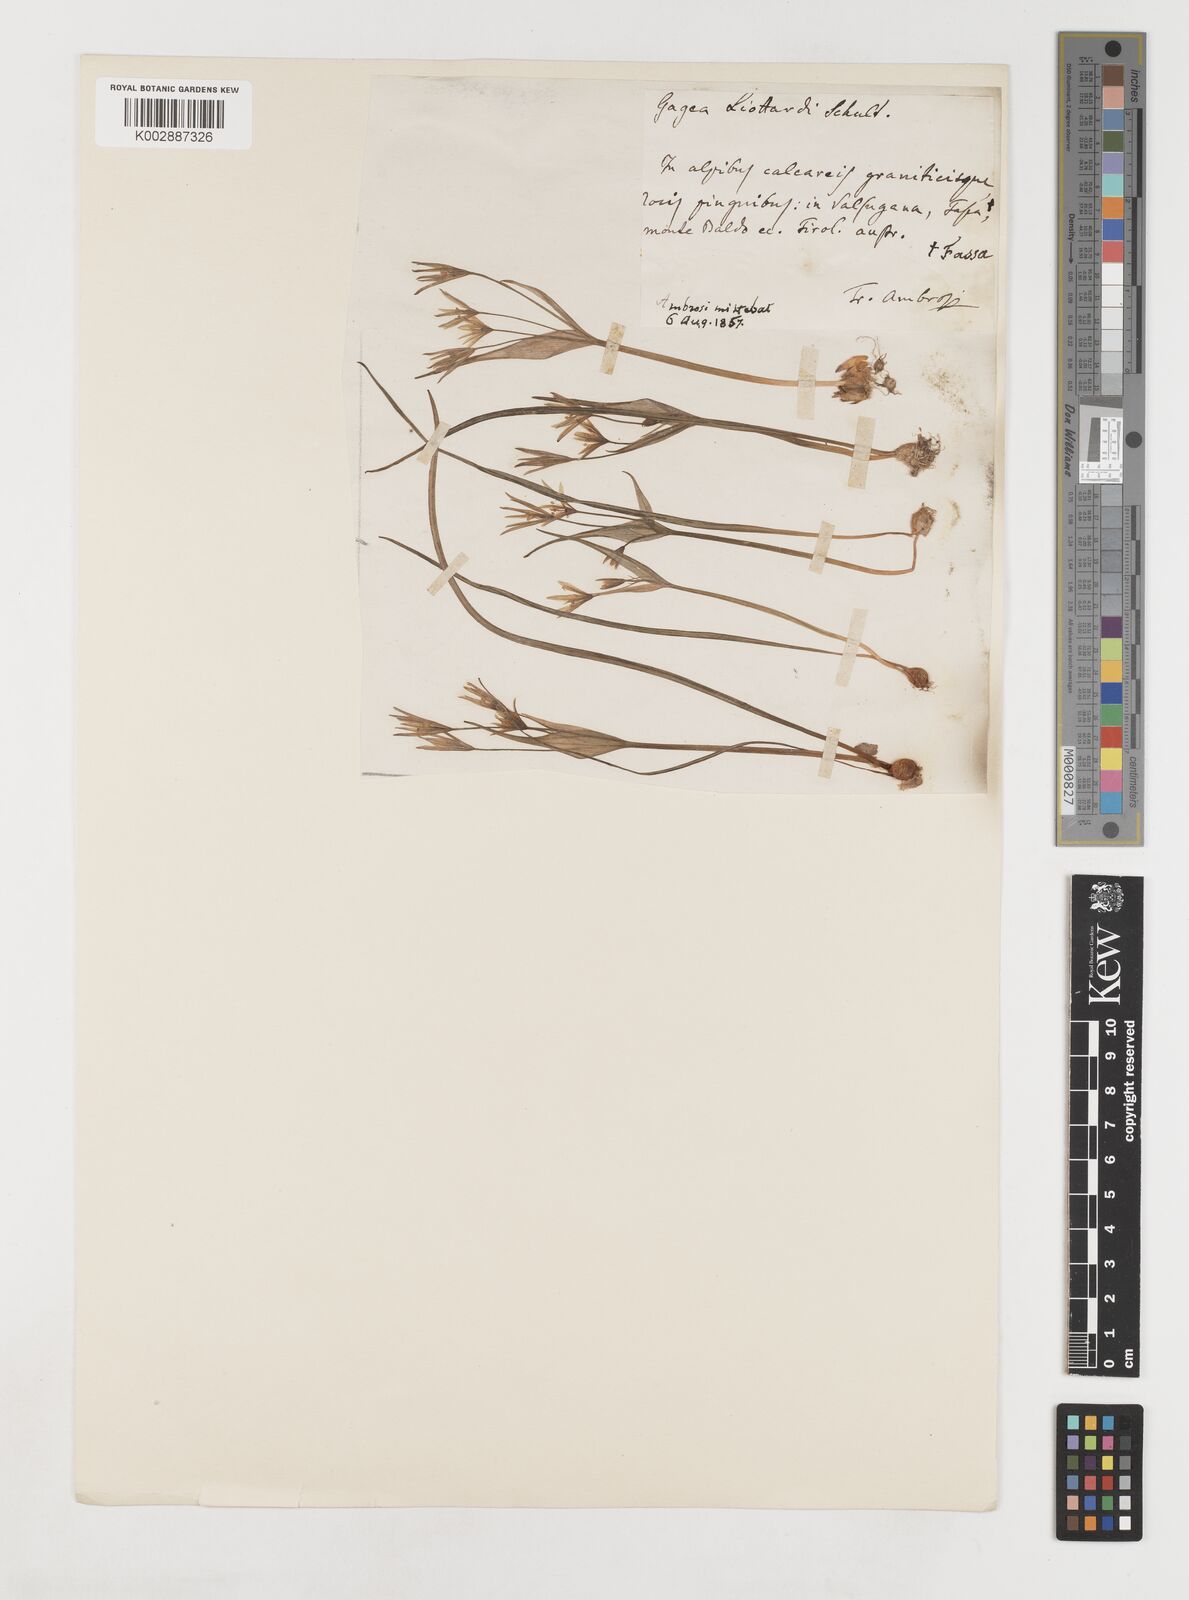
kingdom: Plantae
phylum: Tracheophyta
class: Liliopsida
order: Liliales
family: Liliaceae
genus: Gagea
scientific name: Gagea bohemica
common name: Early star-of-bethlehem
